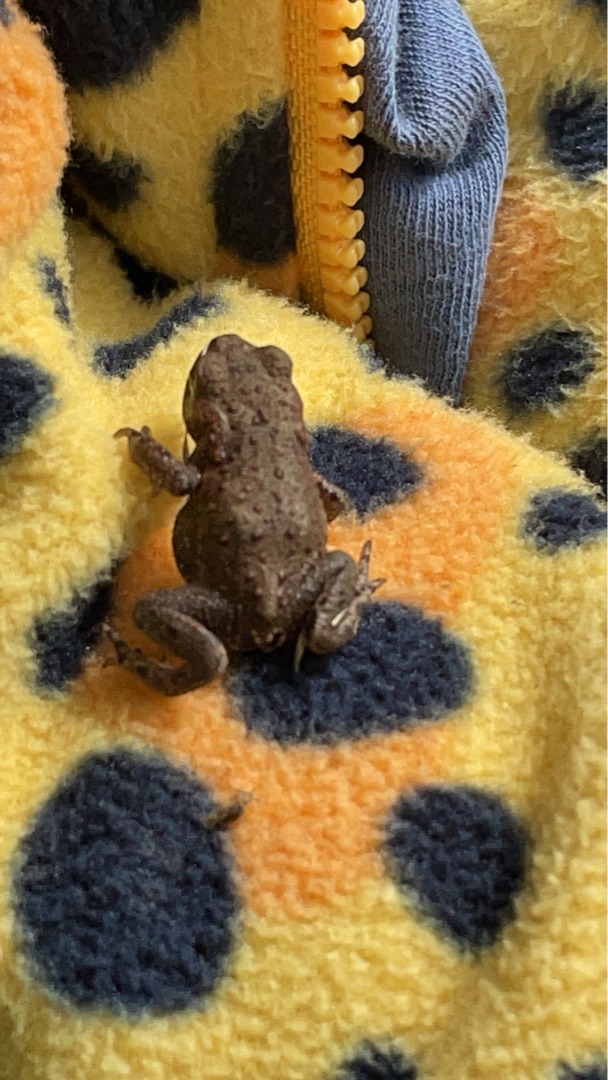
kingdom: Animalia
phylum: Chordata
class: Amphibia
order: Anura
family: Bufonidae
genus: Bufo
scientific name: Bufo bufo
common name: Skrubtudse
